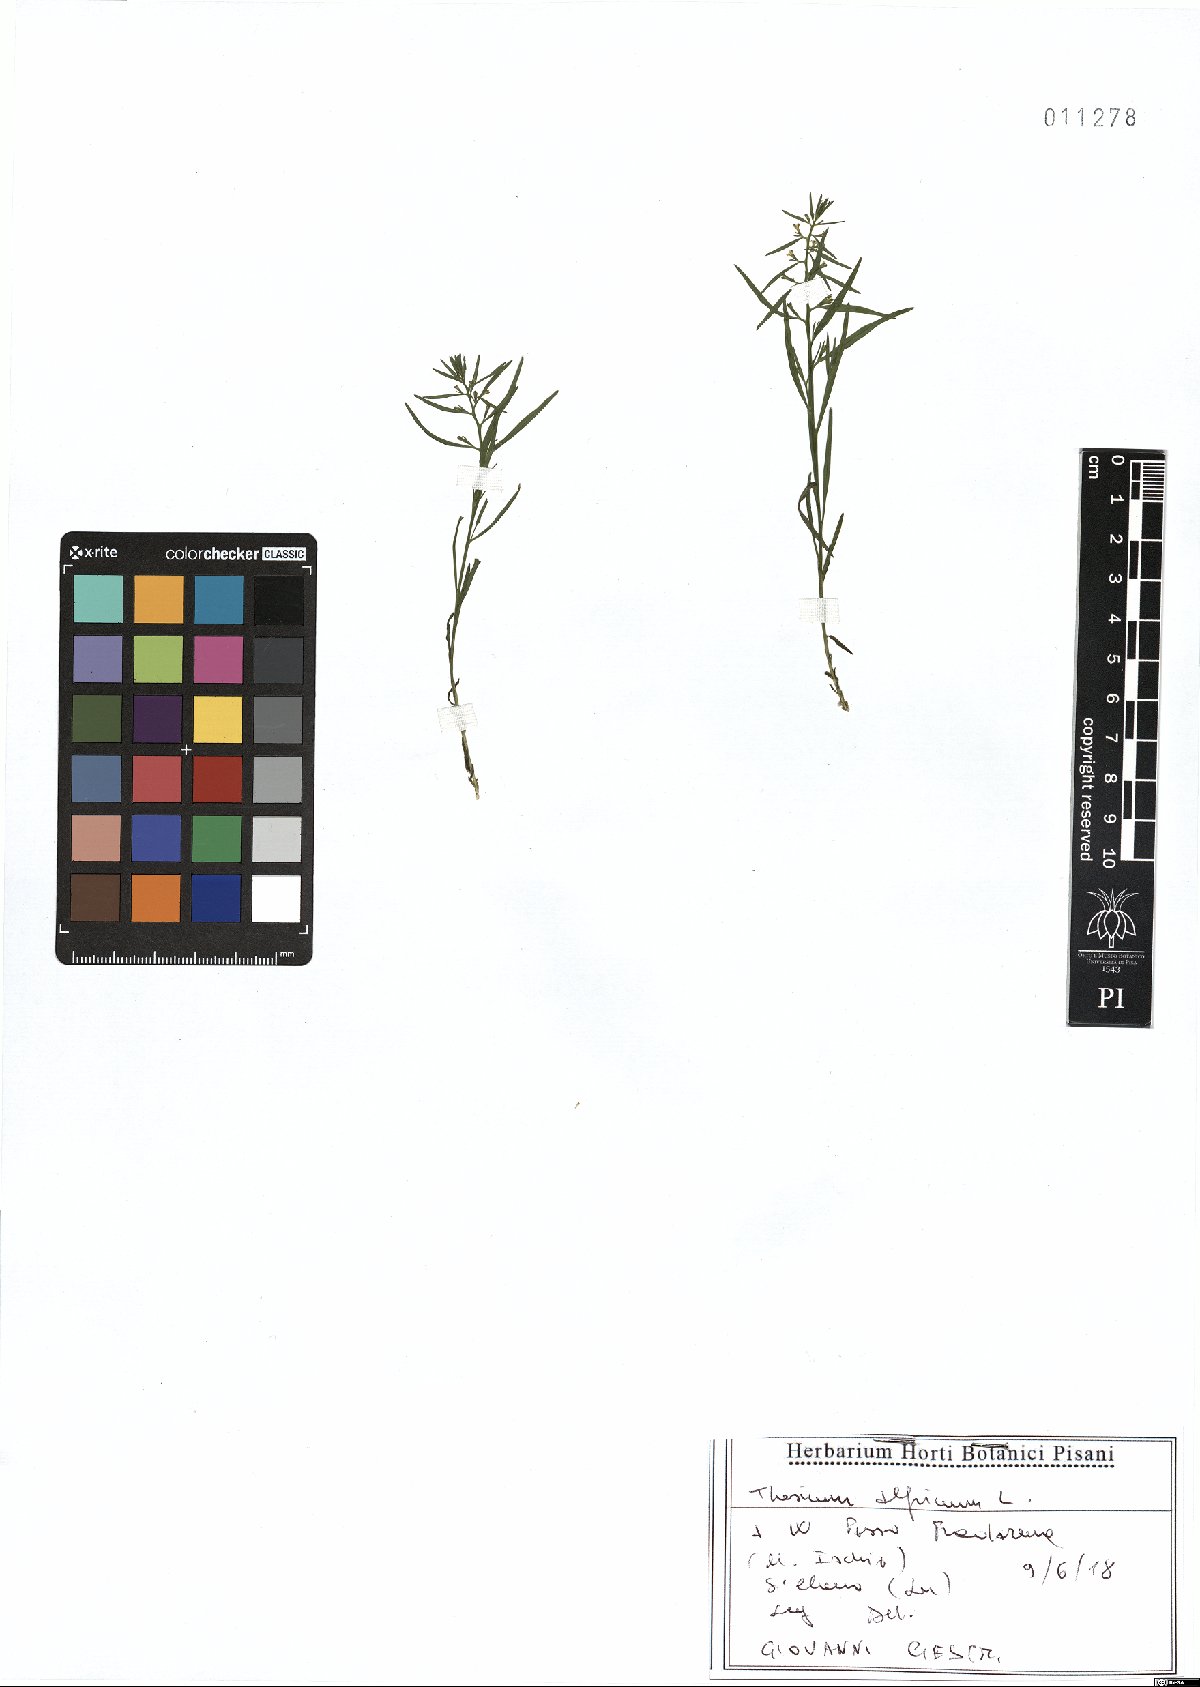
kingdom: Plantae
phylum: Tracheophyta
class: Magnoliopsida
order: Santalales
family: Thesiaceae
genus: Thesium
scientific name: Thesium alpinum
